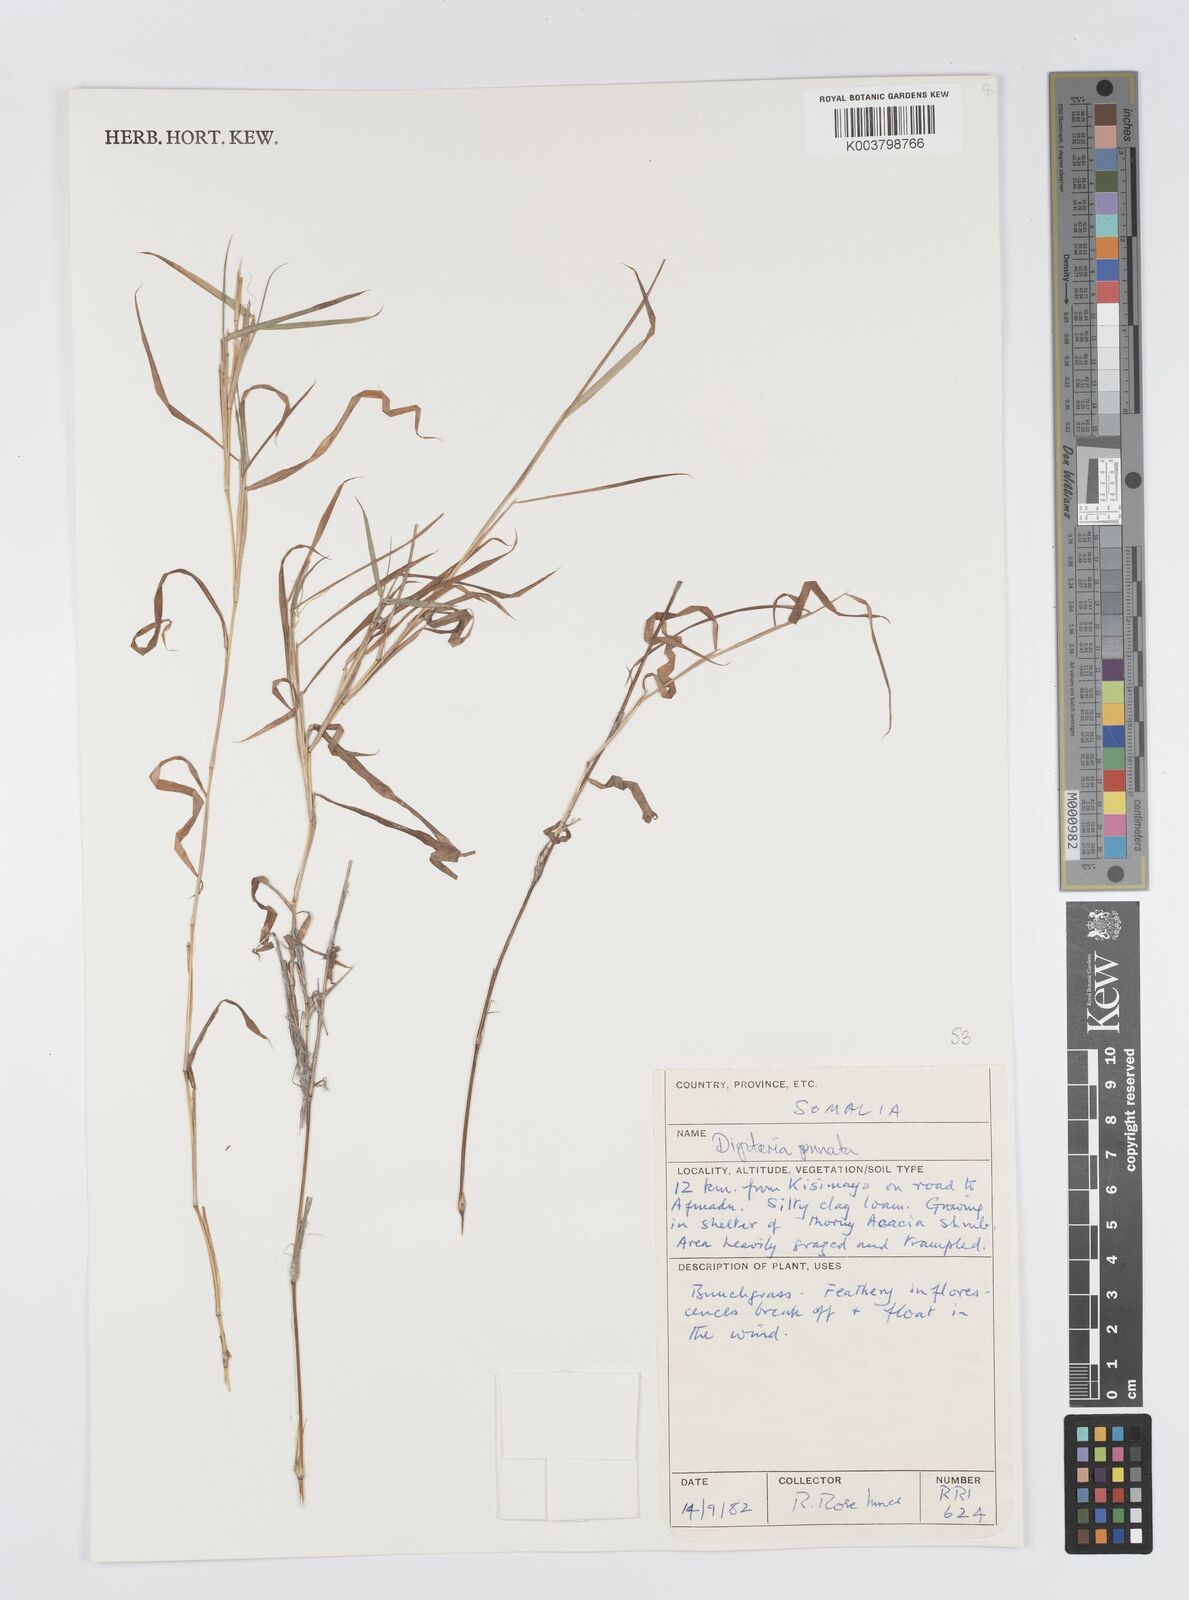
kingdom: Plantae
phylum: Tracheophyta
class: Liliopsida
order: Poales
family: Poaceae
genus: Digitaria
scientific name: Digitaria pennata
